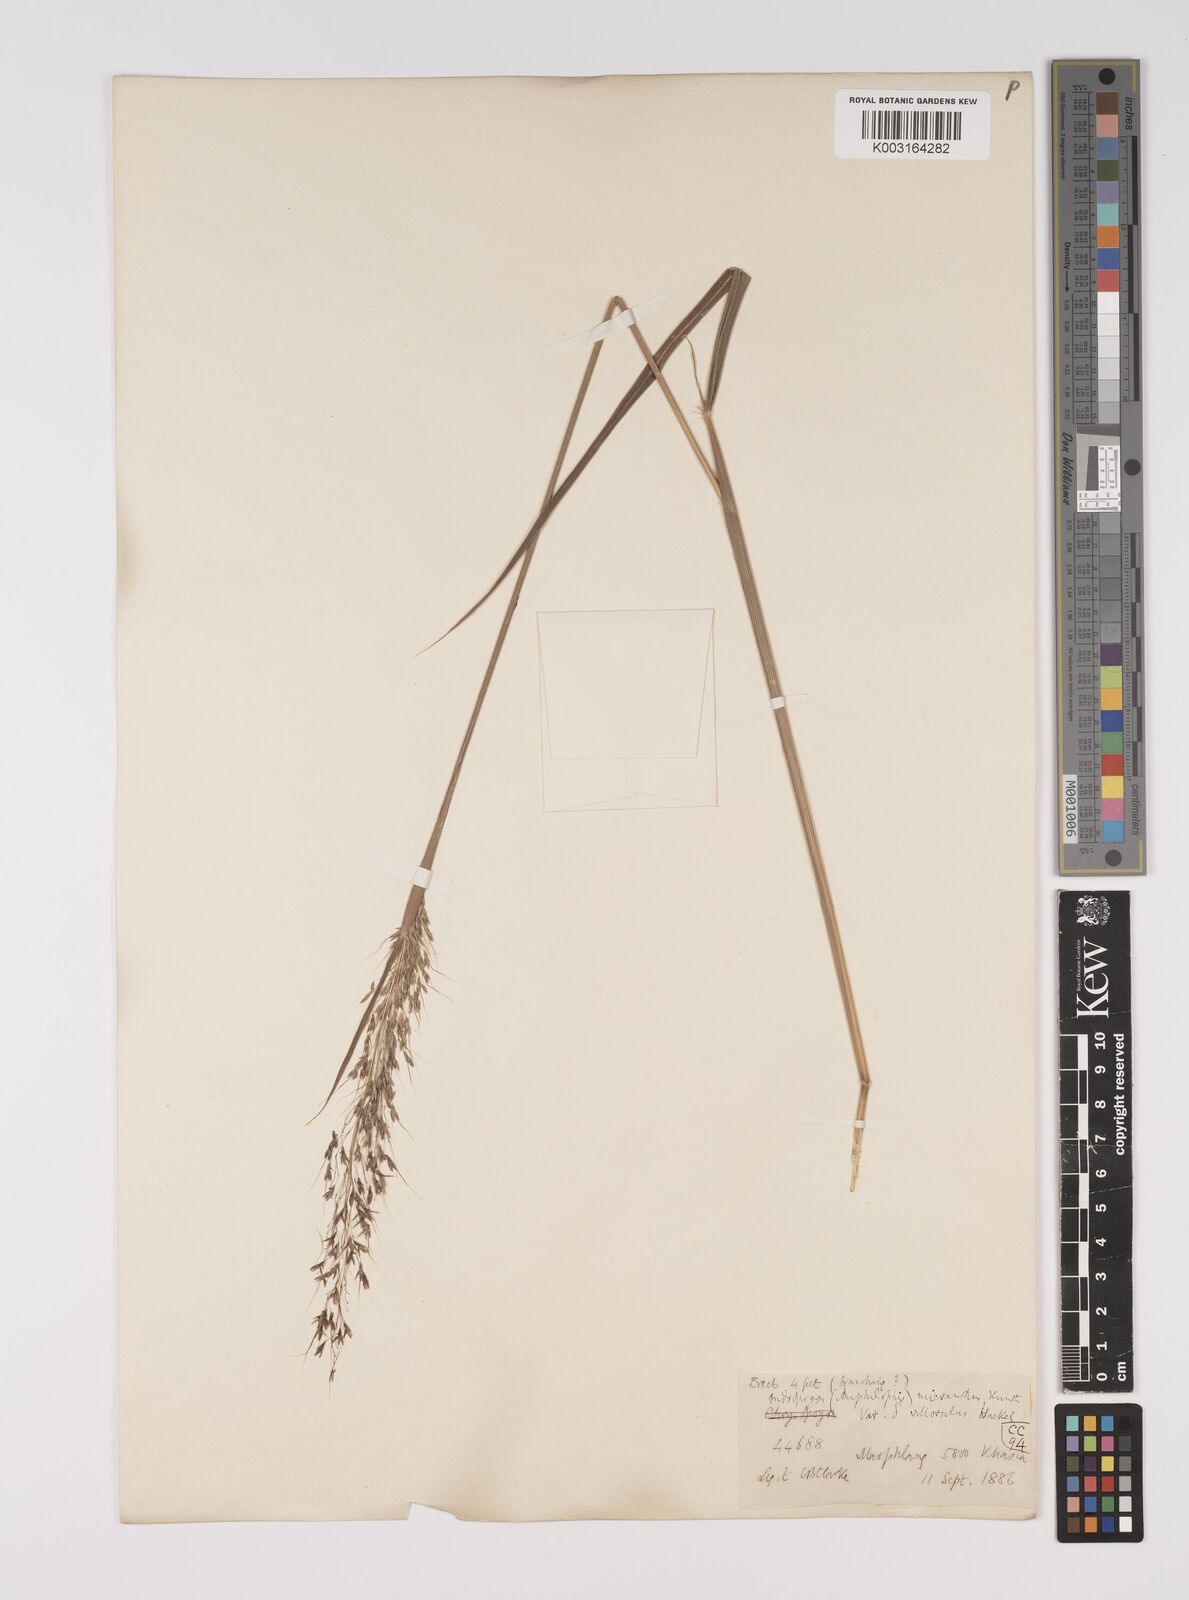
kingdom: Plantae
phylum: Tracheophyta
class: Liliopsida
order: Poales
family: Poaceae
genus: Capillipedium
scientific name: Capillipedium parviflorum
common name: Golden-beard
